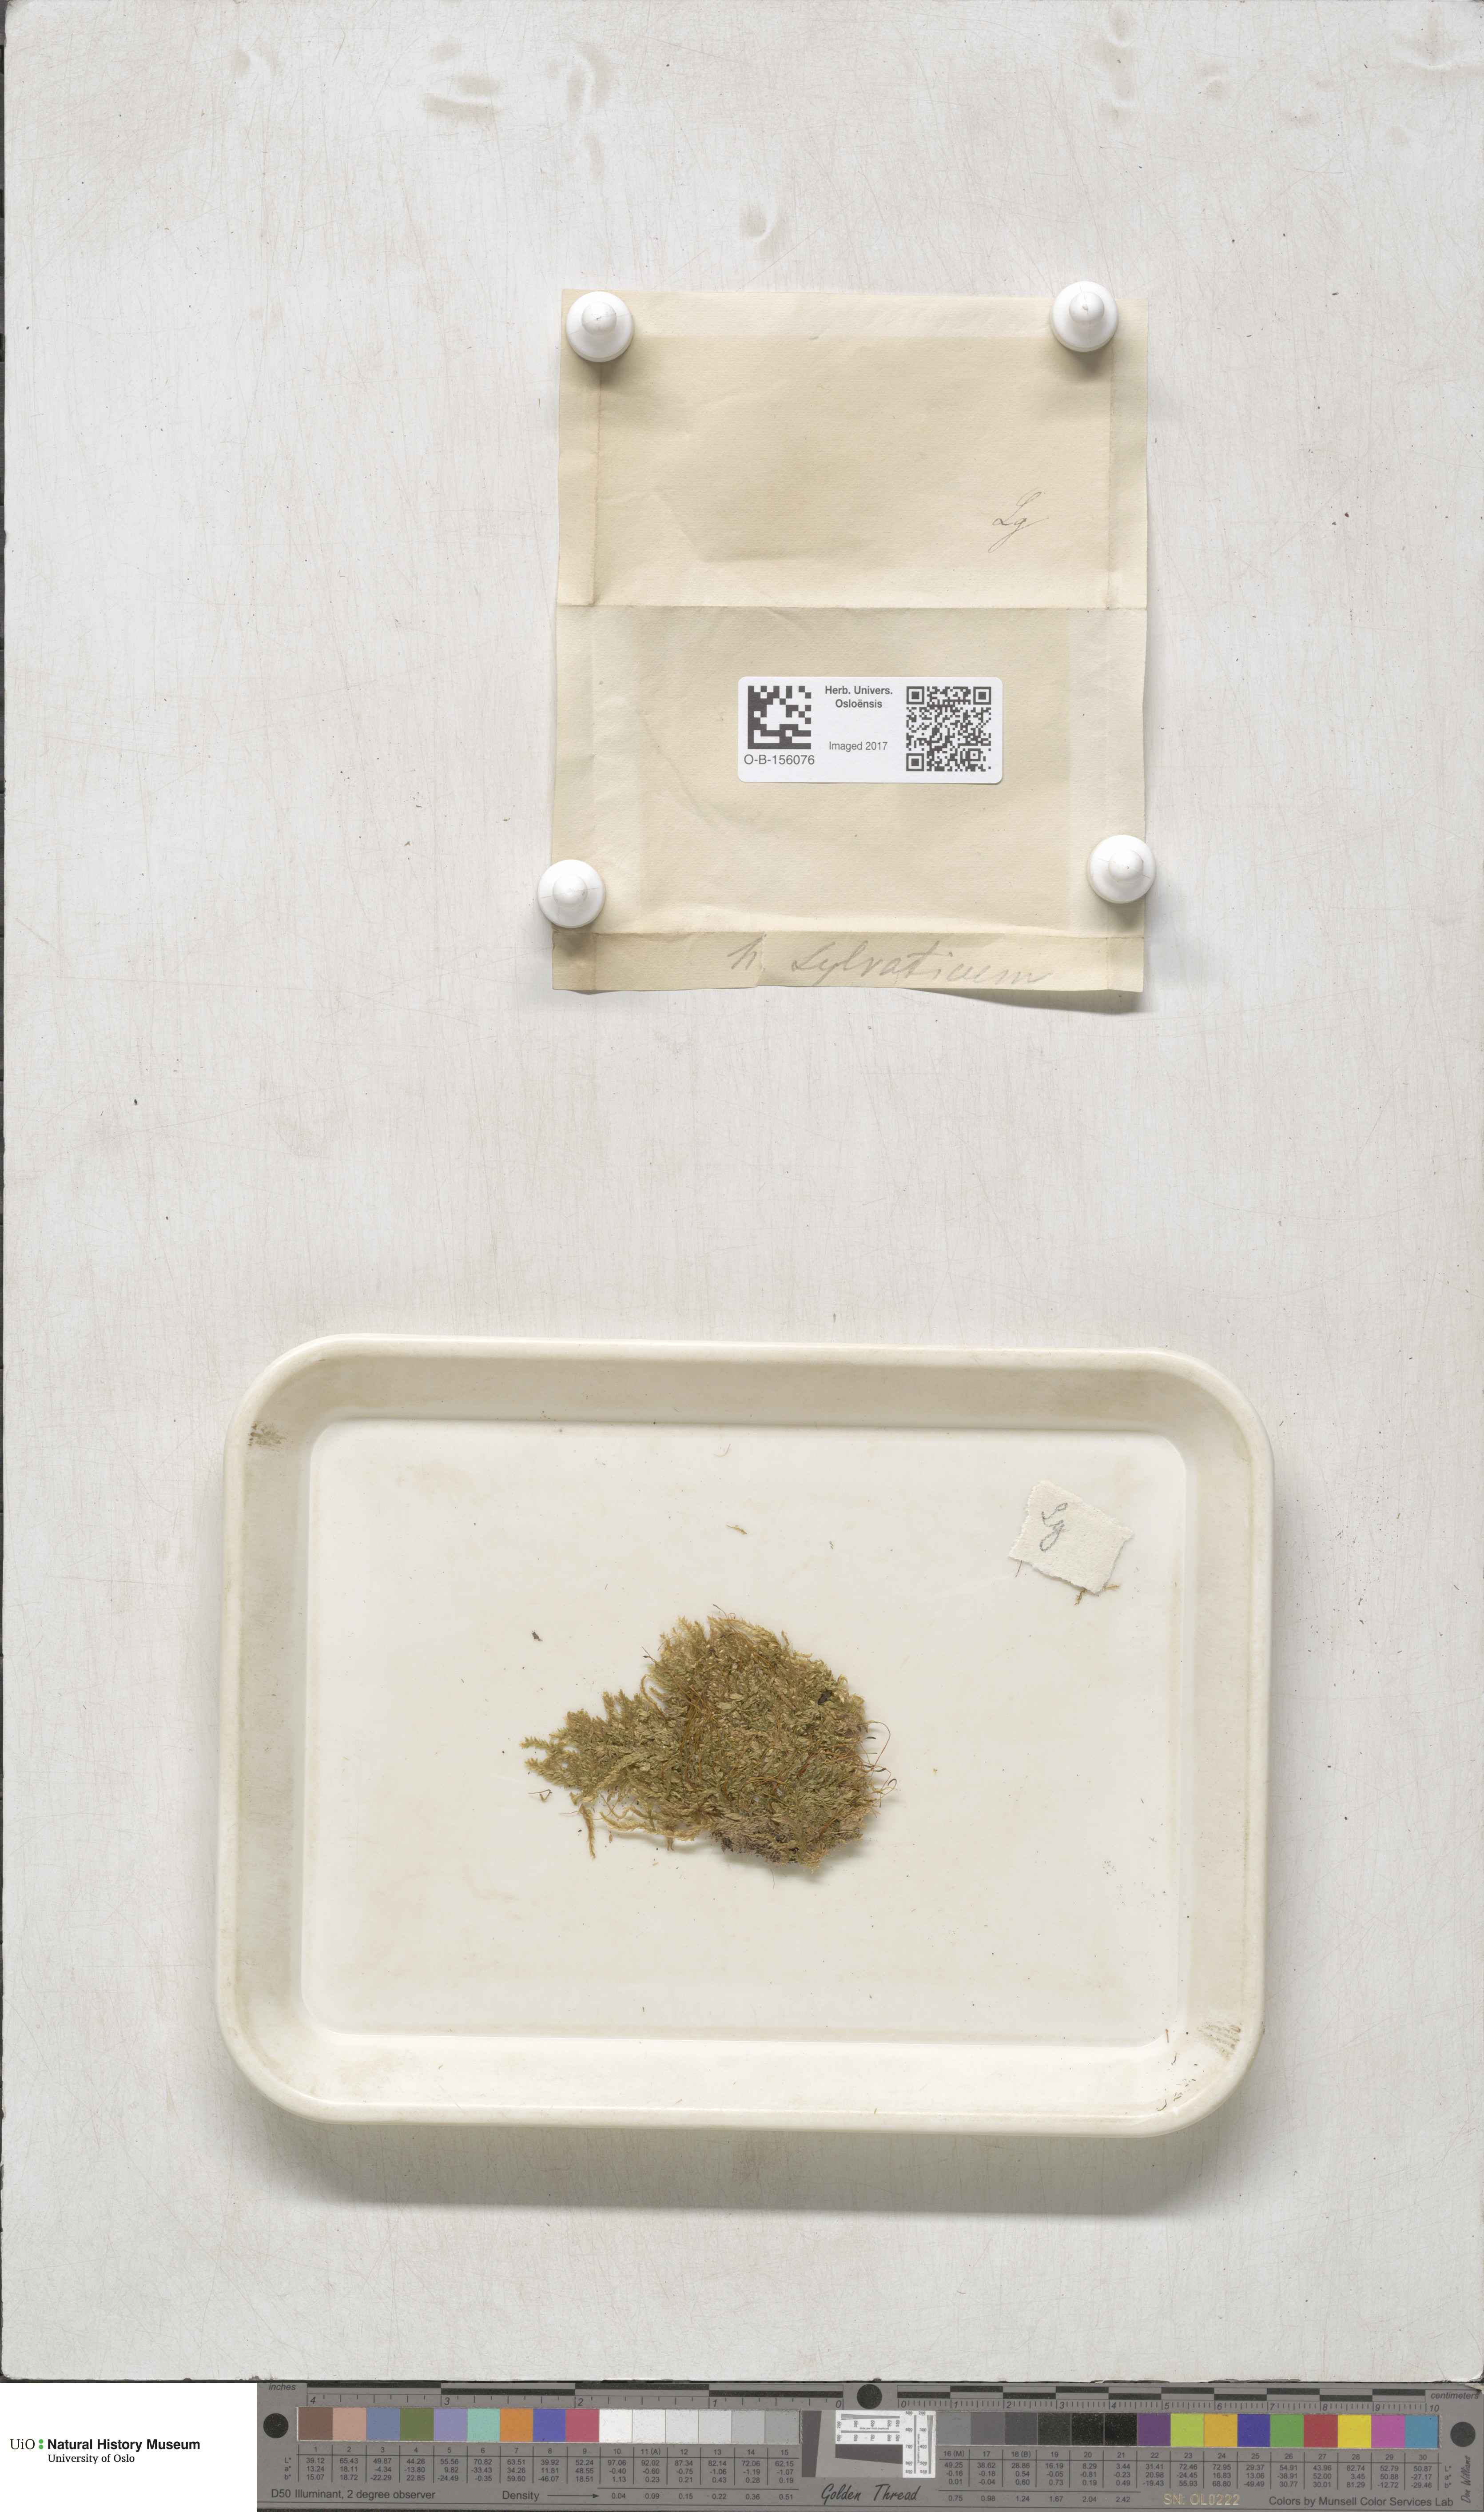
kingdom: Plantae
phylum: Bryophyta
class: Bryopsida
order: Hypnales
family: Plagiotheciaceae
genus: Plagiothecium
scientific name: Plagiothecium nemorale
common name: Woodsy silk-moss
